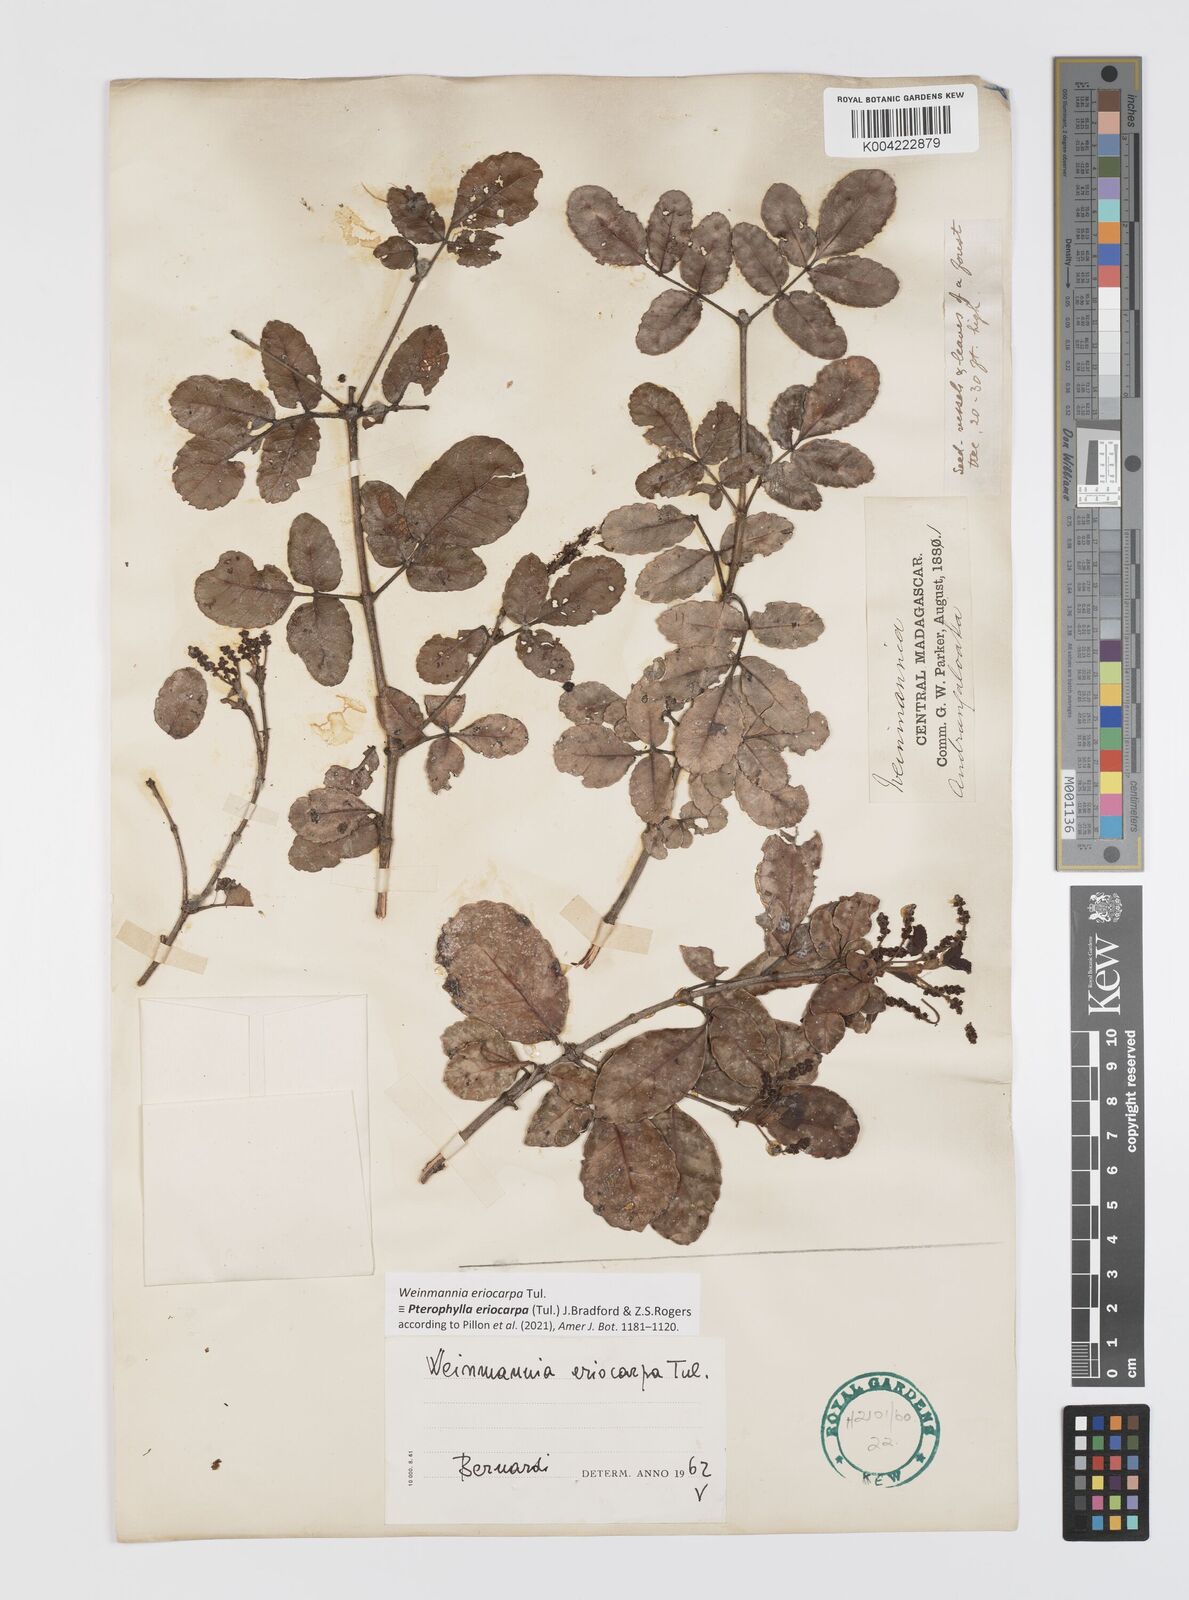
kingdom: Plantae
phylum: Tracheophyta
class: Magnoliopsida
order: Oxalidales
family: Cunoniaceae
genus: Pterophylla
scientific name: Pterophylla eriocarpa
